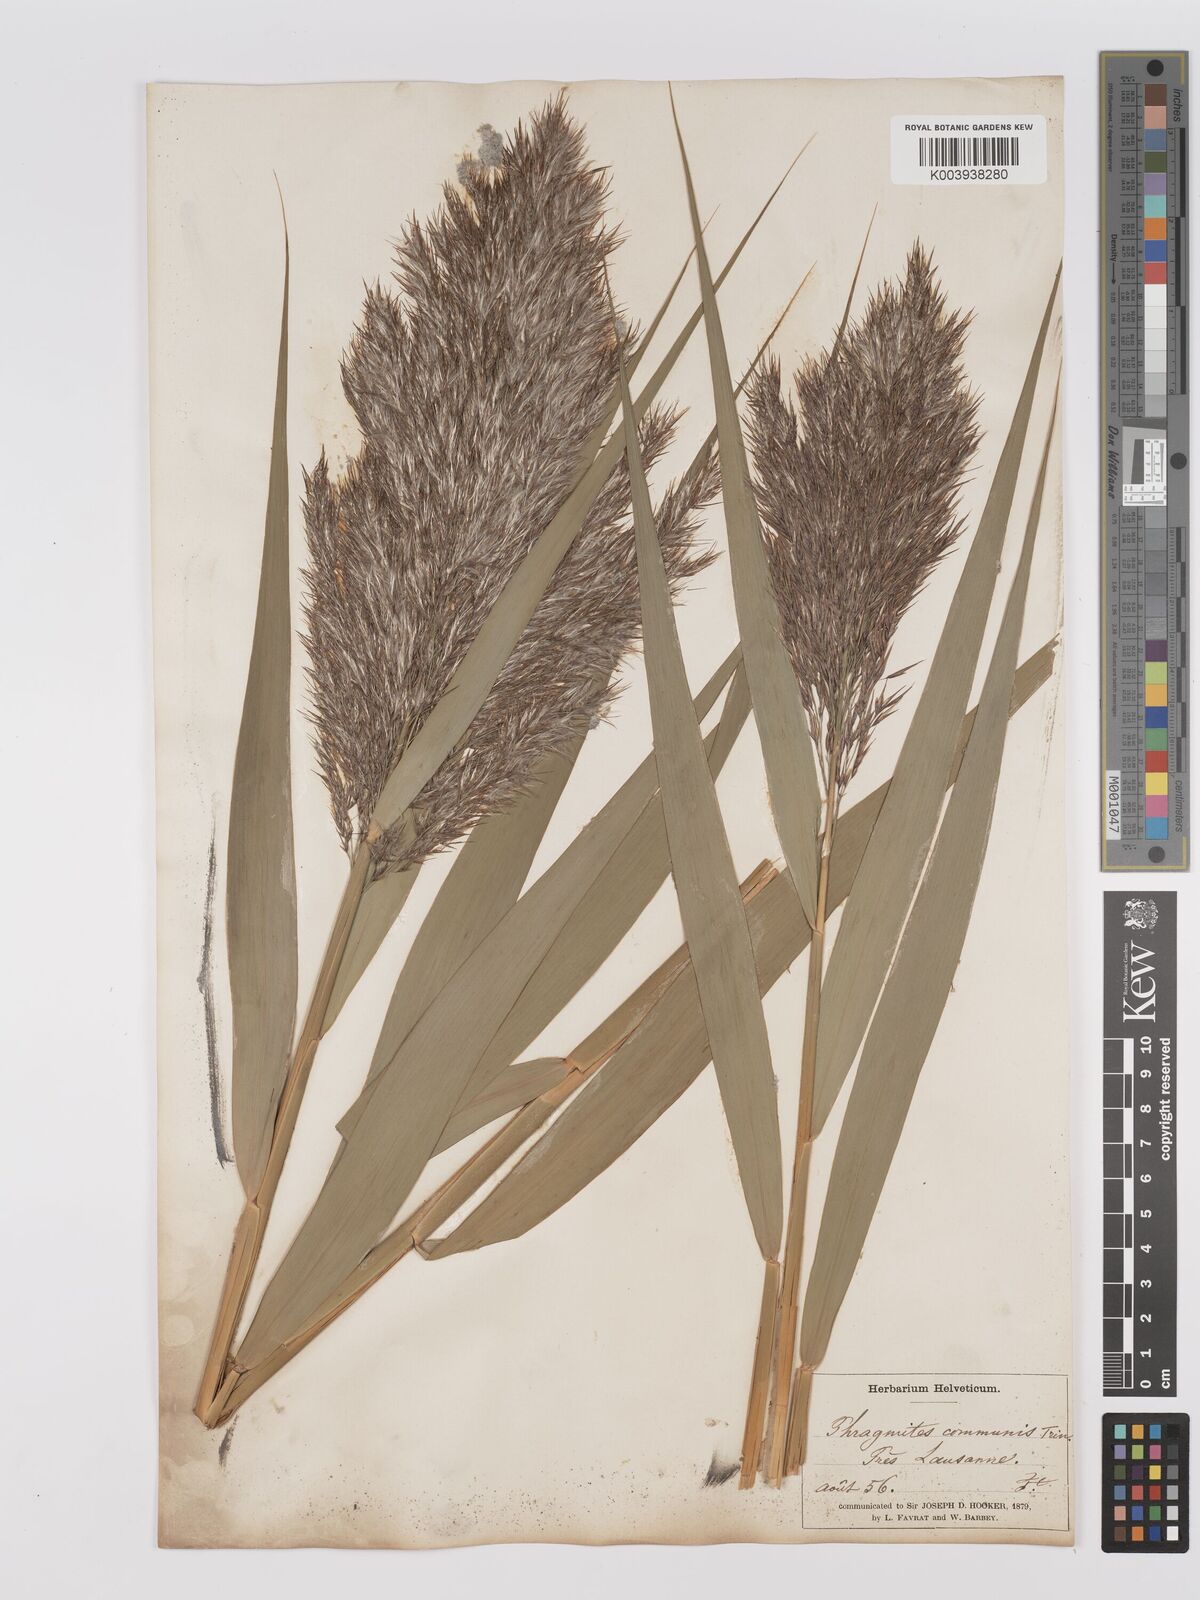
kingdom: Plantae
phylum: Tracheophyta
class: Liliopsida
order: Poales
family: Poaceae
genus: Phragmites
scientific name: Phragmites australis
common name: Common reed
